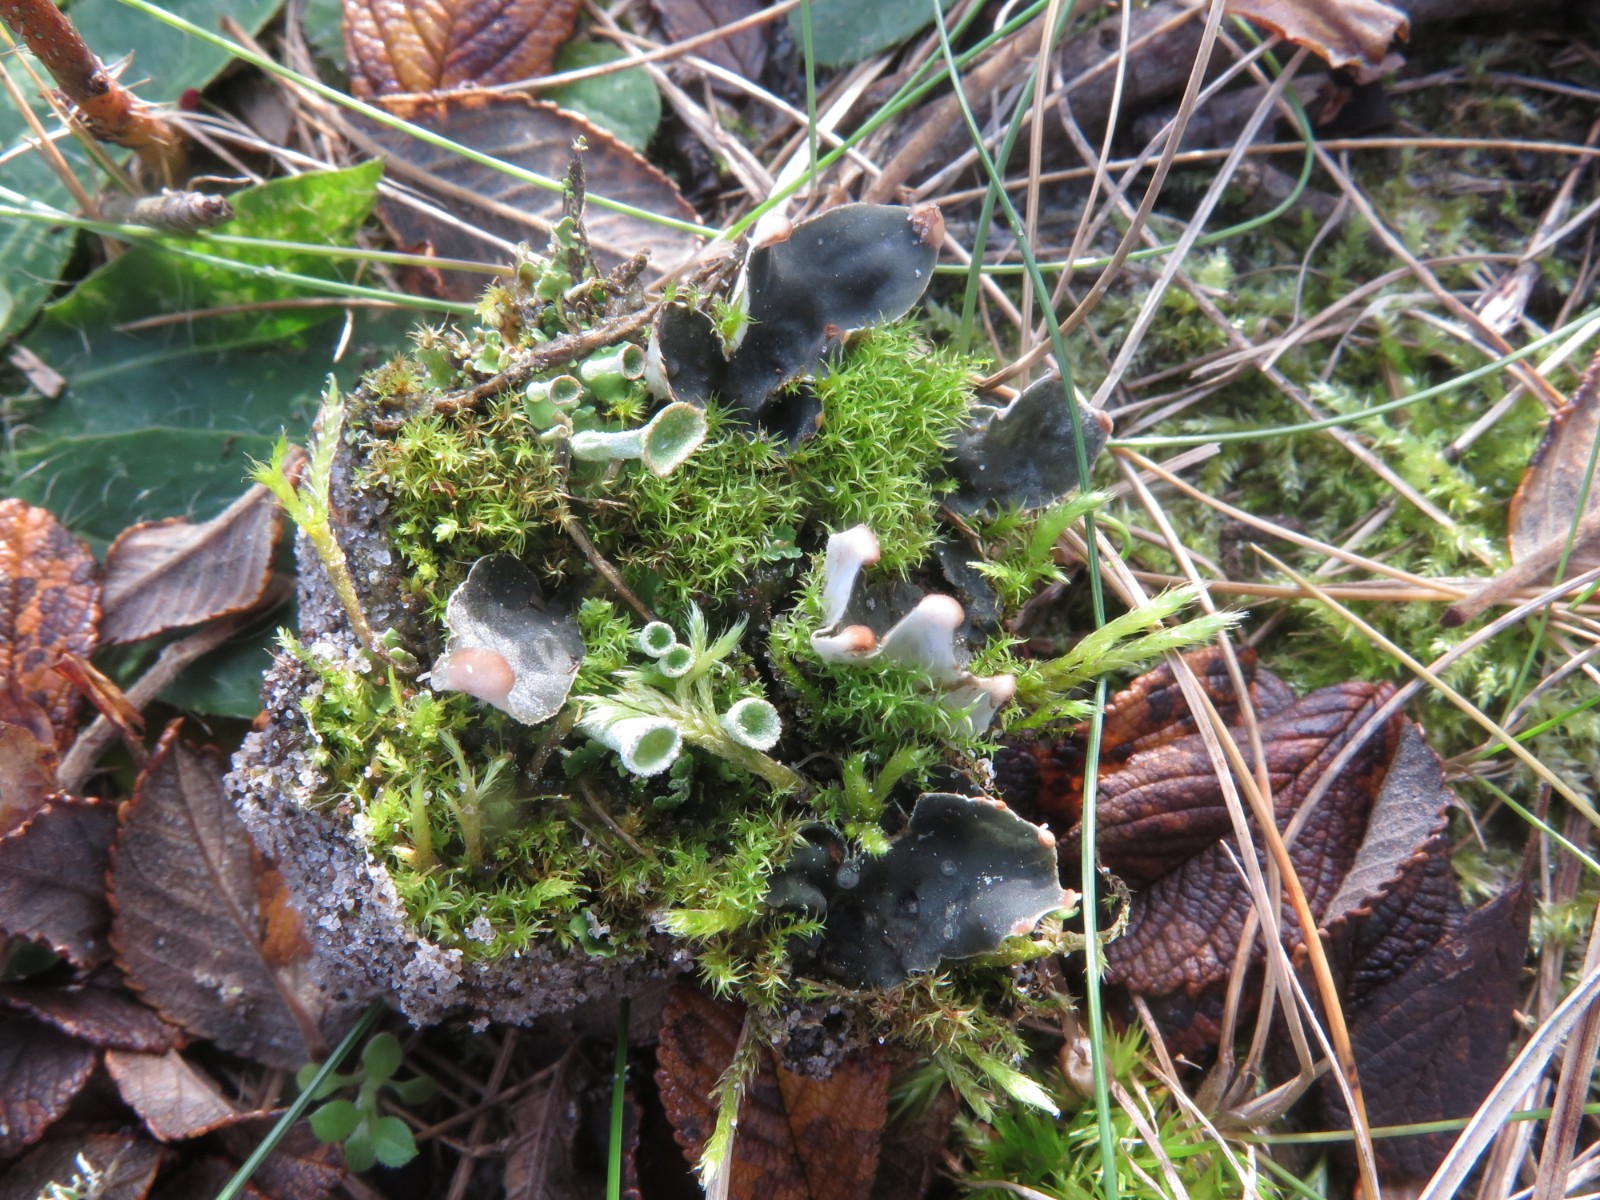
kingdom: Fungi
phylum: Ascomycota
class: Lecanoromycetes
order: Peltigerales
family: Peltigeraceae
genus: Peltigera
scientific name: Peltigera didactyla
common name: liden skjoldlav
